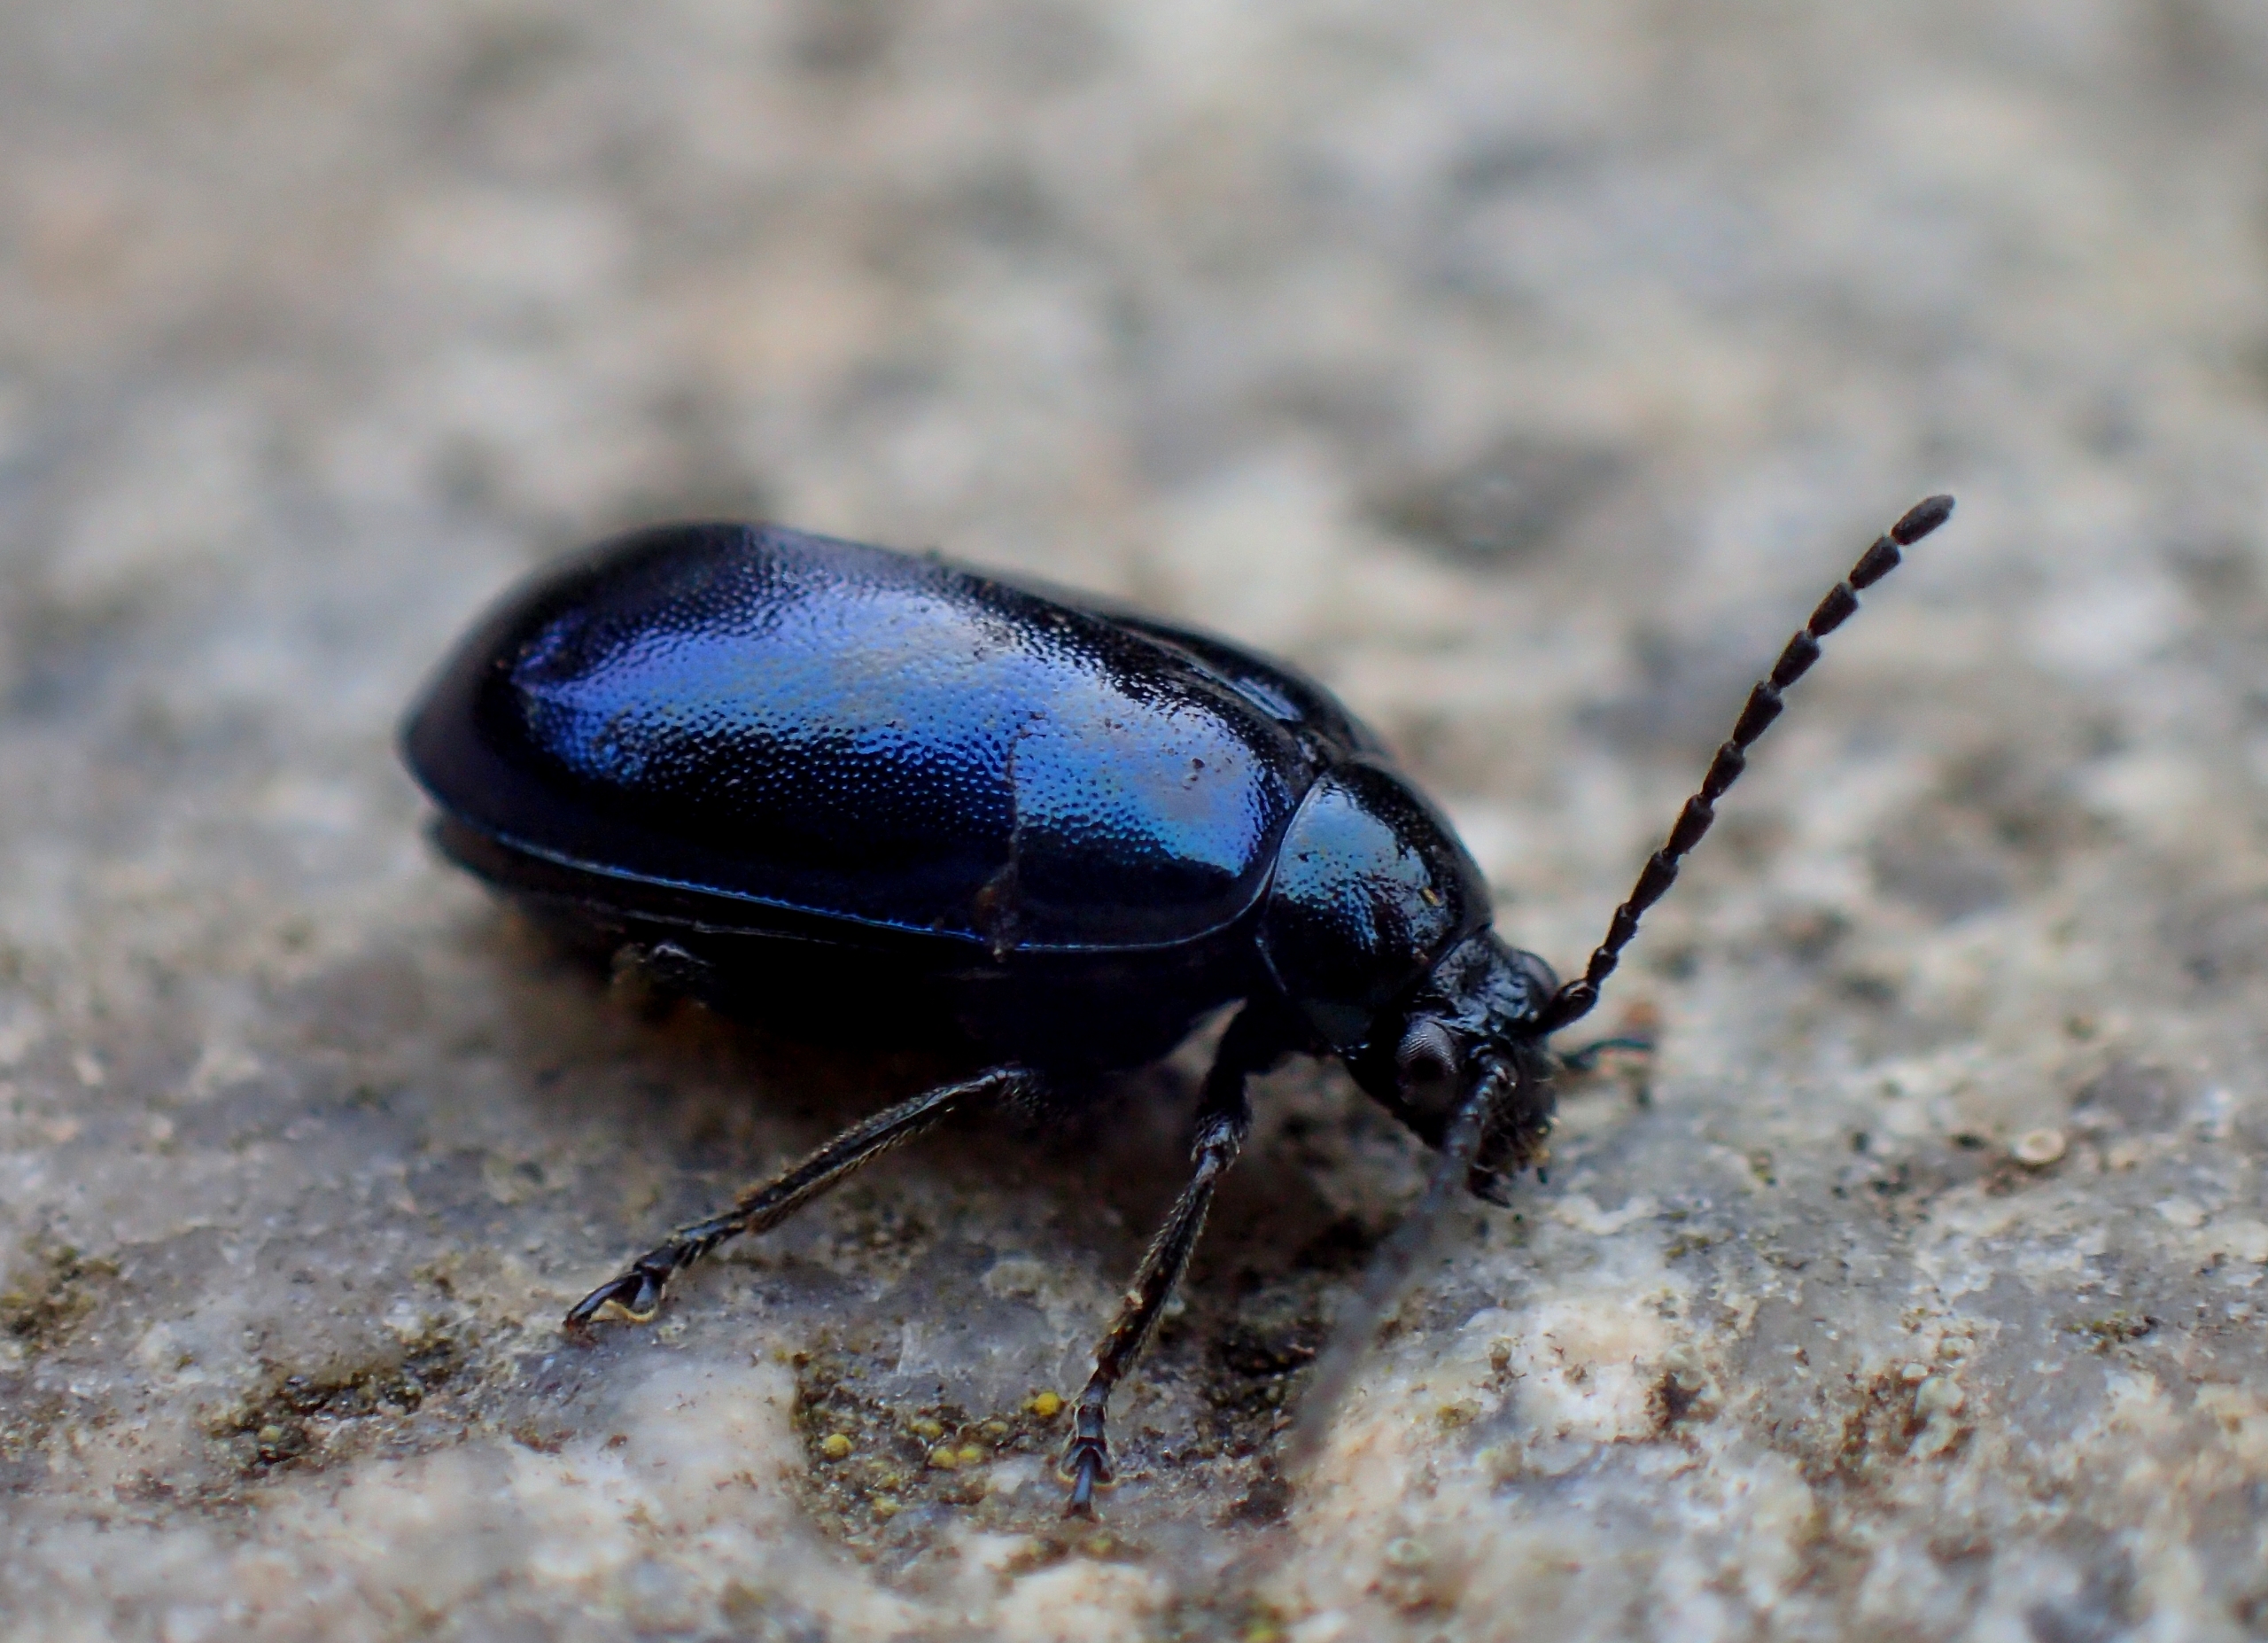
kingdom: Animalia
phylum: Arthropoda
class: Insecta
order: Coleoptera
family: Chrysomelidae
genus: Agelastica
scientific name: Agelastica alni
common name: Ellebladbille
